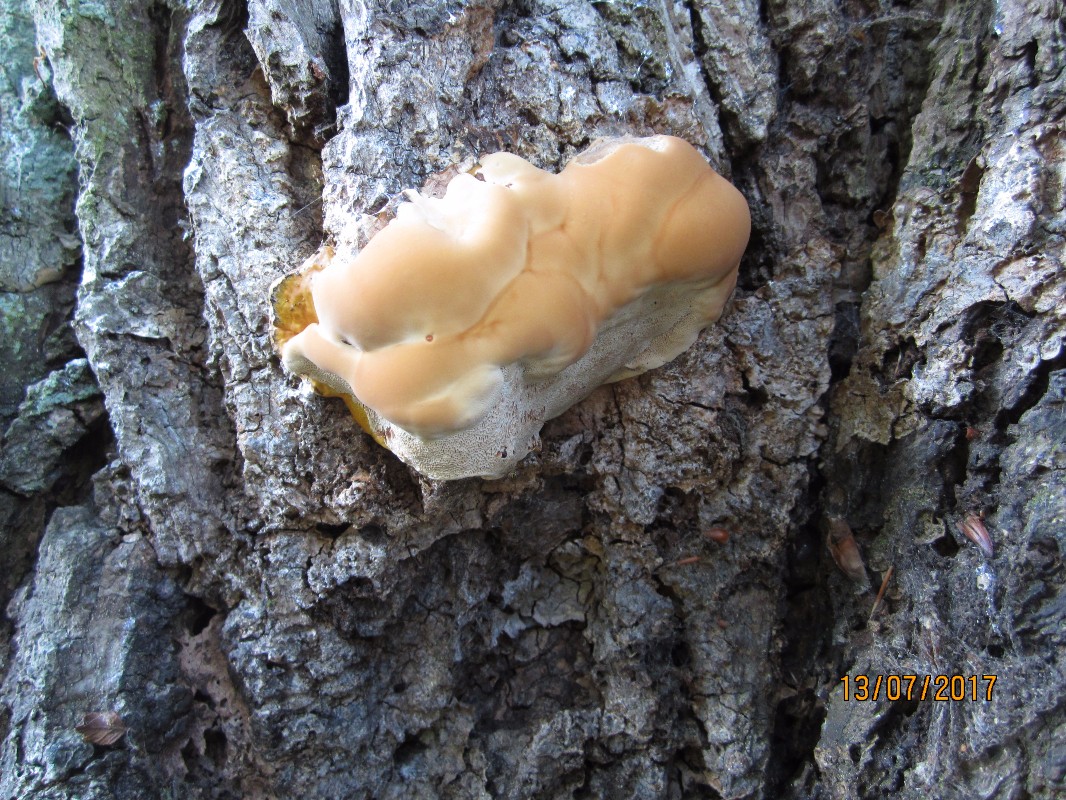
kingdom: Fungi
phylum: Basidiomycota
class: Agaricomycetes
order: Polyporales
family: Polyporaceae
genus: Ganoderma
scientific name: Ganoderma resinaceum
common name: gyldenbrun lakporesvamp
